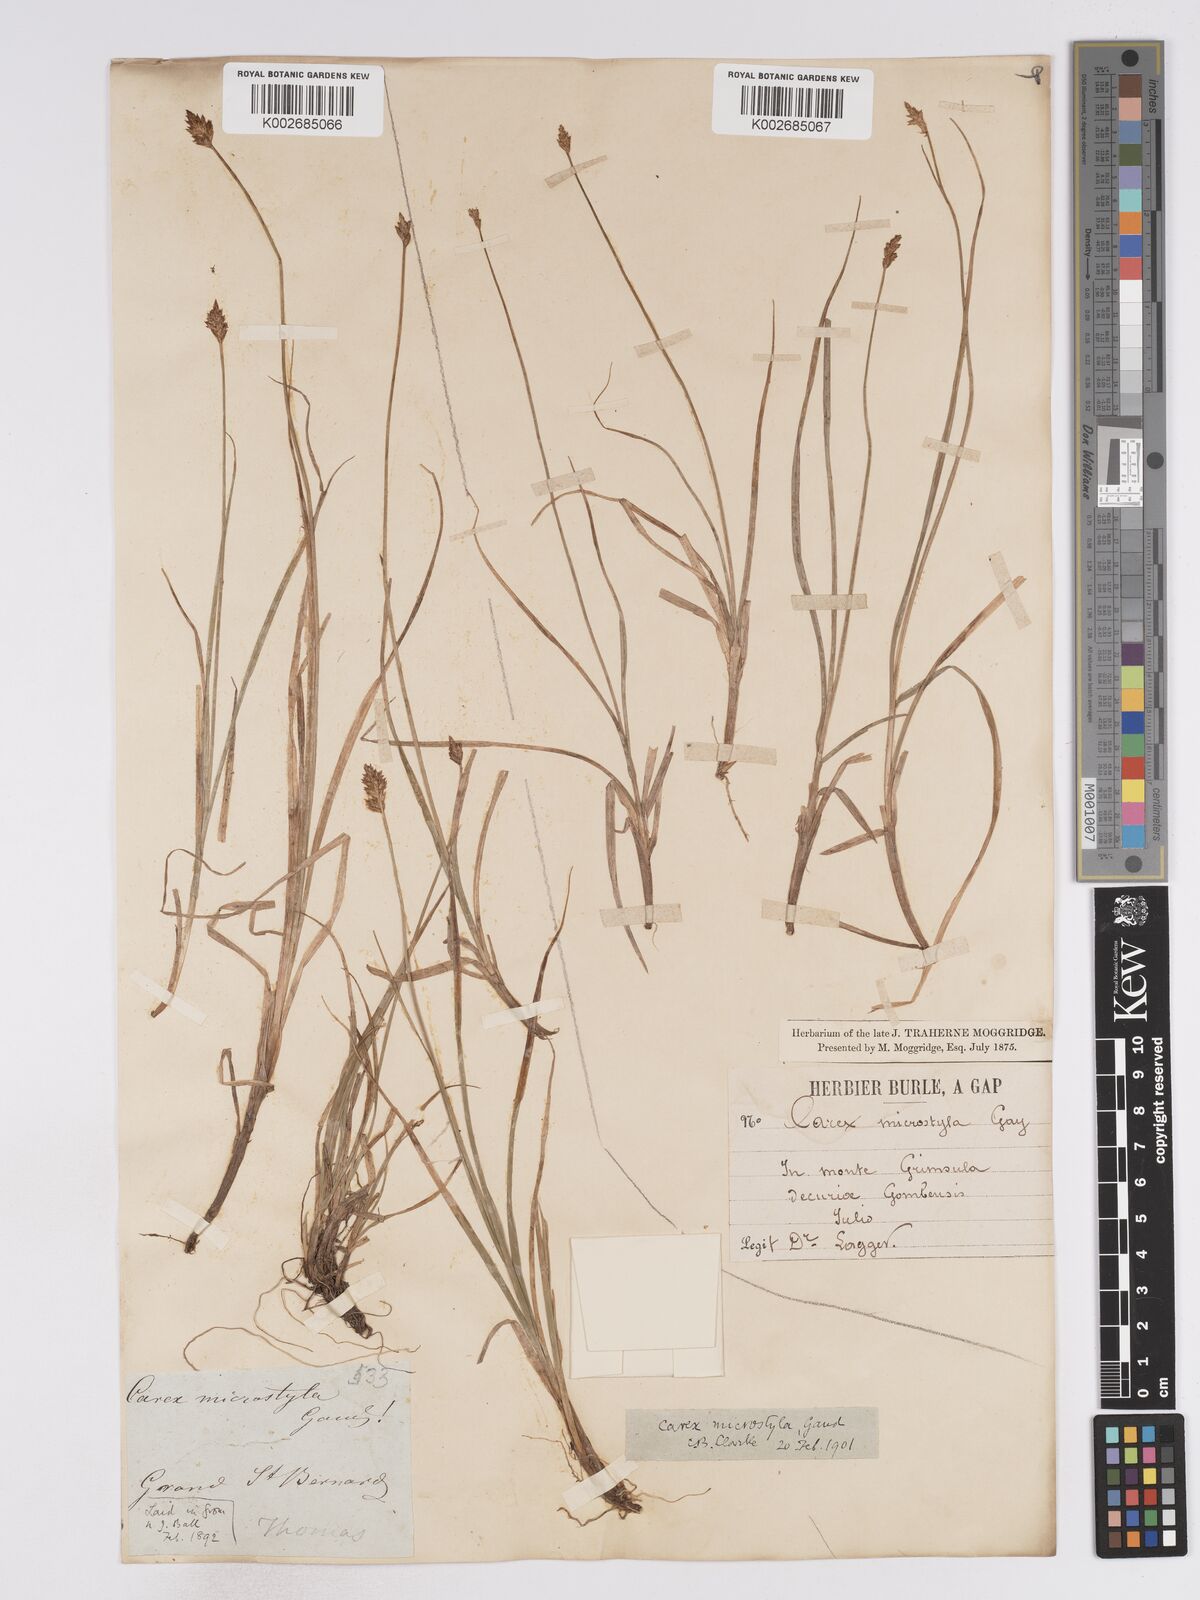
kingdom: Plantae
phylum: Tracheophyta
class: Liliopsida
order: Poales
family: Cyperaceae
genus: Carex
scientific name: Carex microstyla
